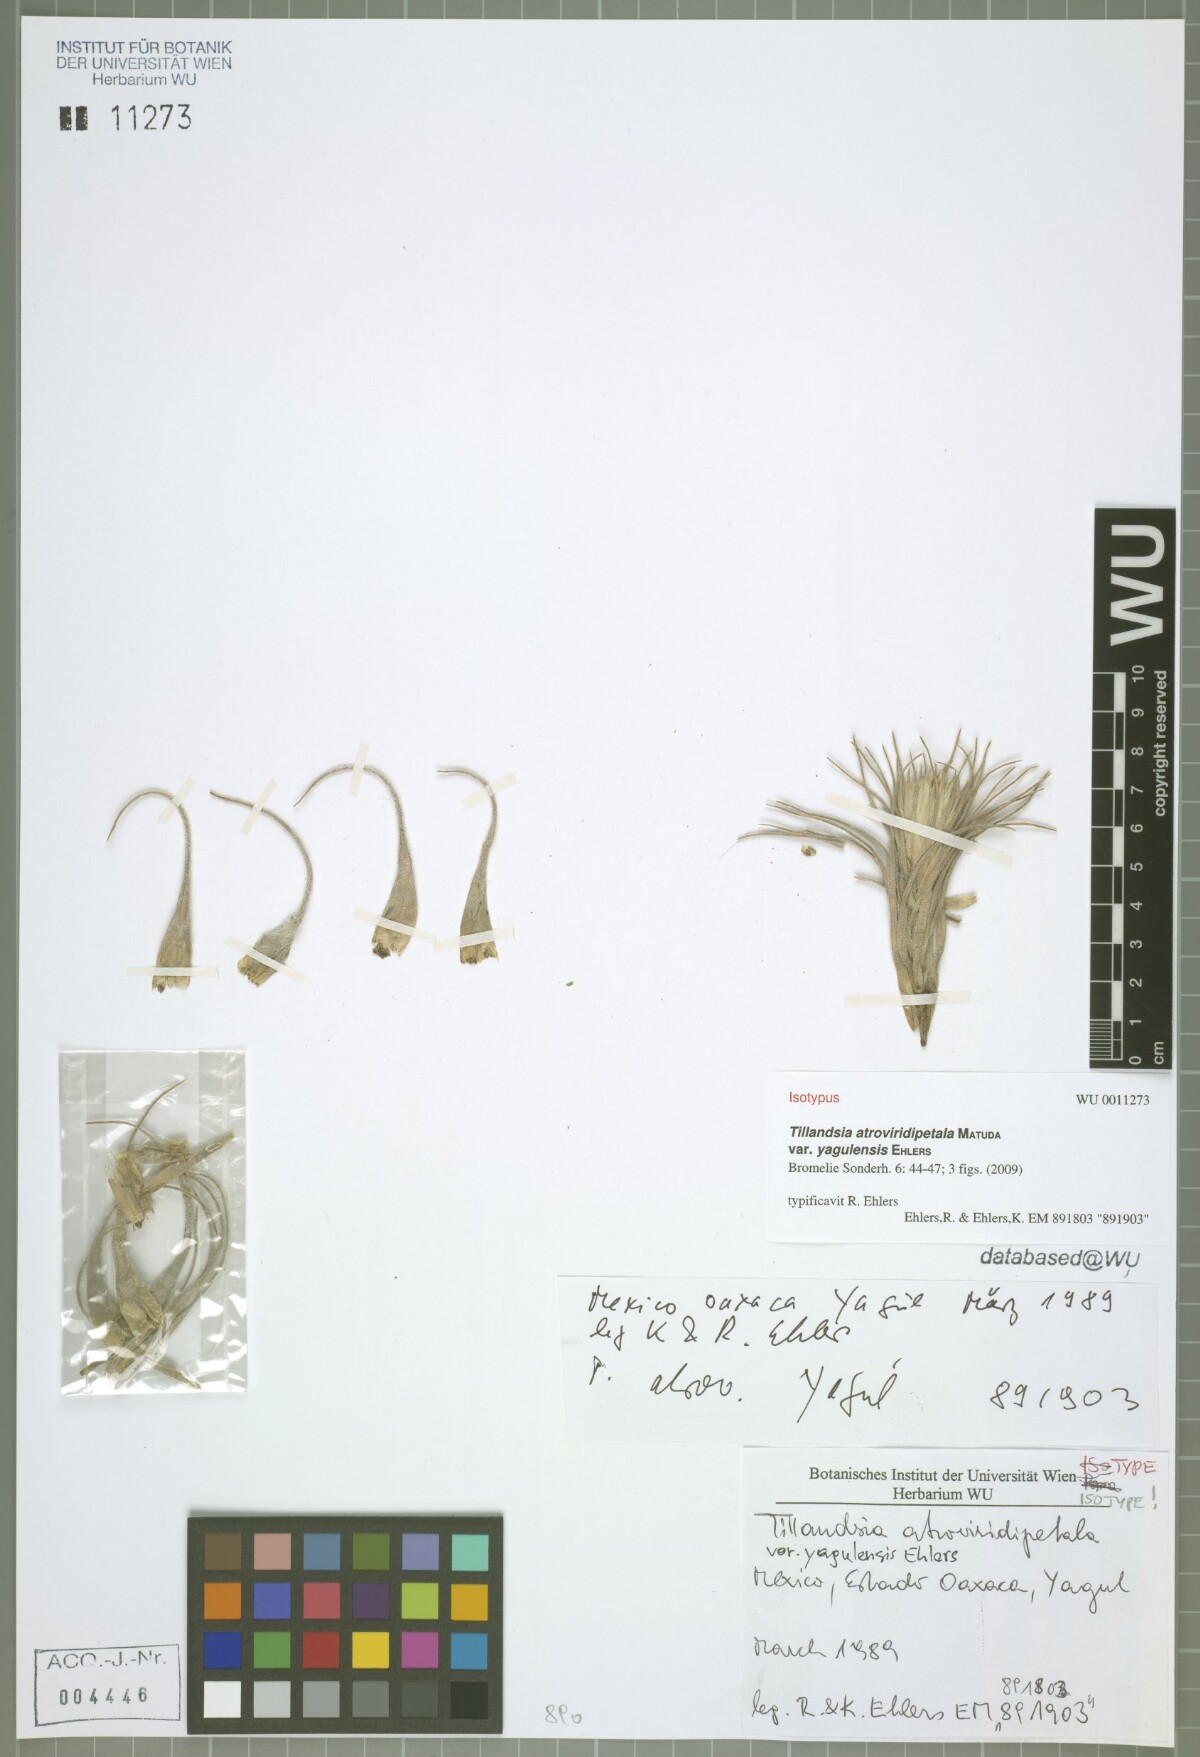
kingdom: Plantae
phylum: Tracheophyta
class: Liliopsida
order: Poales
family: Bromeliaceae
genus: Tillandsia
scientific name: Tillandsia atroviridipetala
